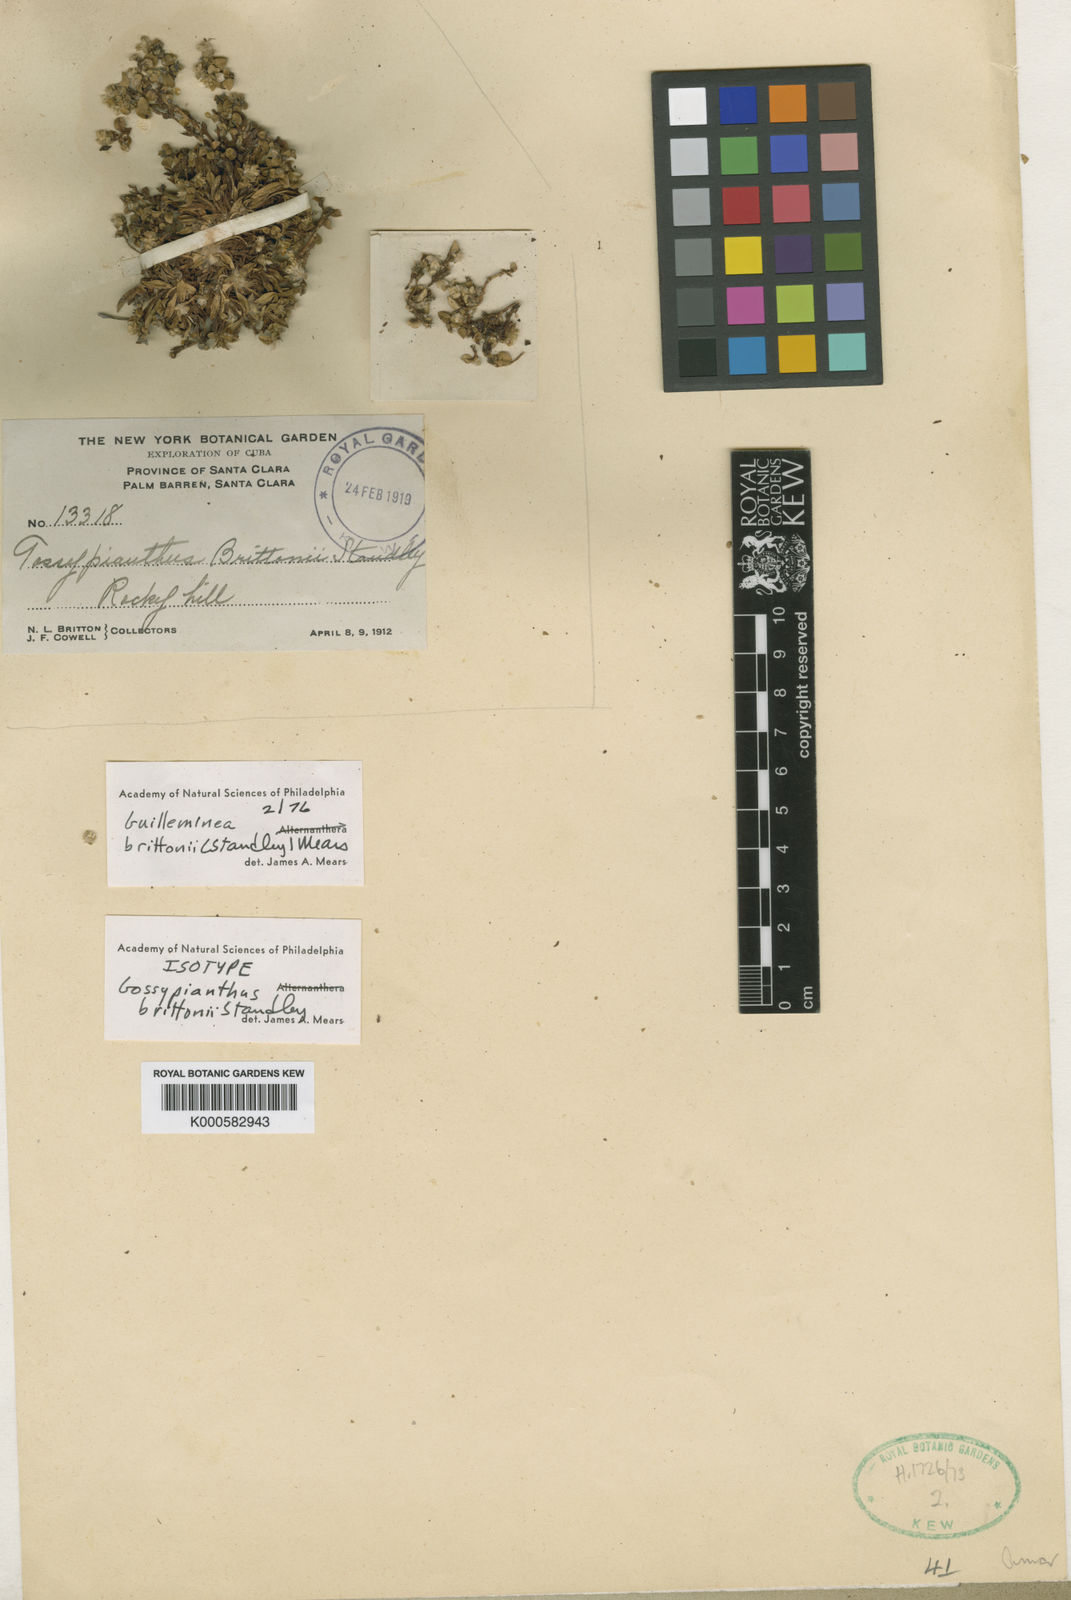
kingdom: Plantae
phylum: Tracheophyta
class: Magnoliopsida
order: Caryophyllales
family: Amaranthaceae
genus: Gomphrena
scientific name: Gomphrena brittonii
